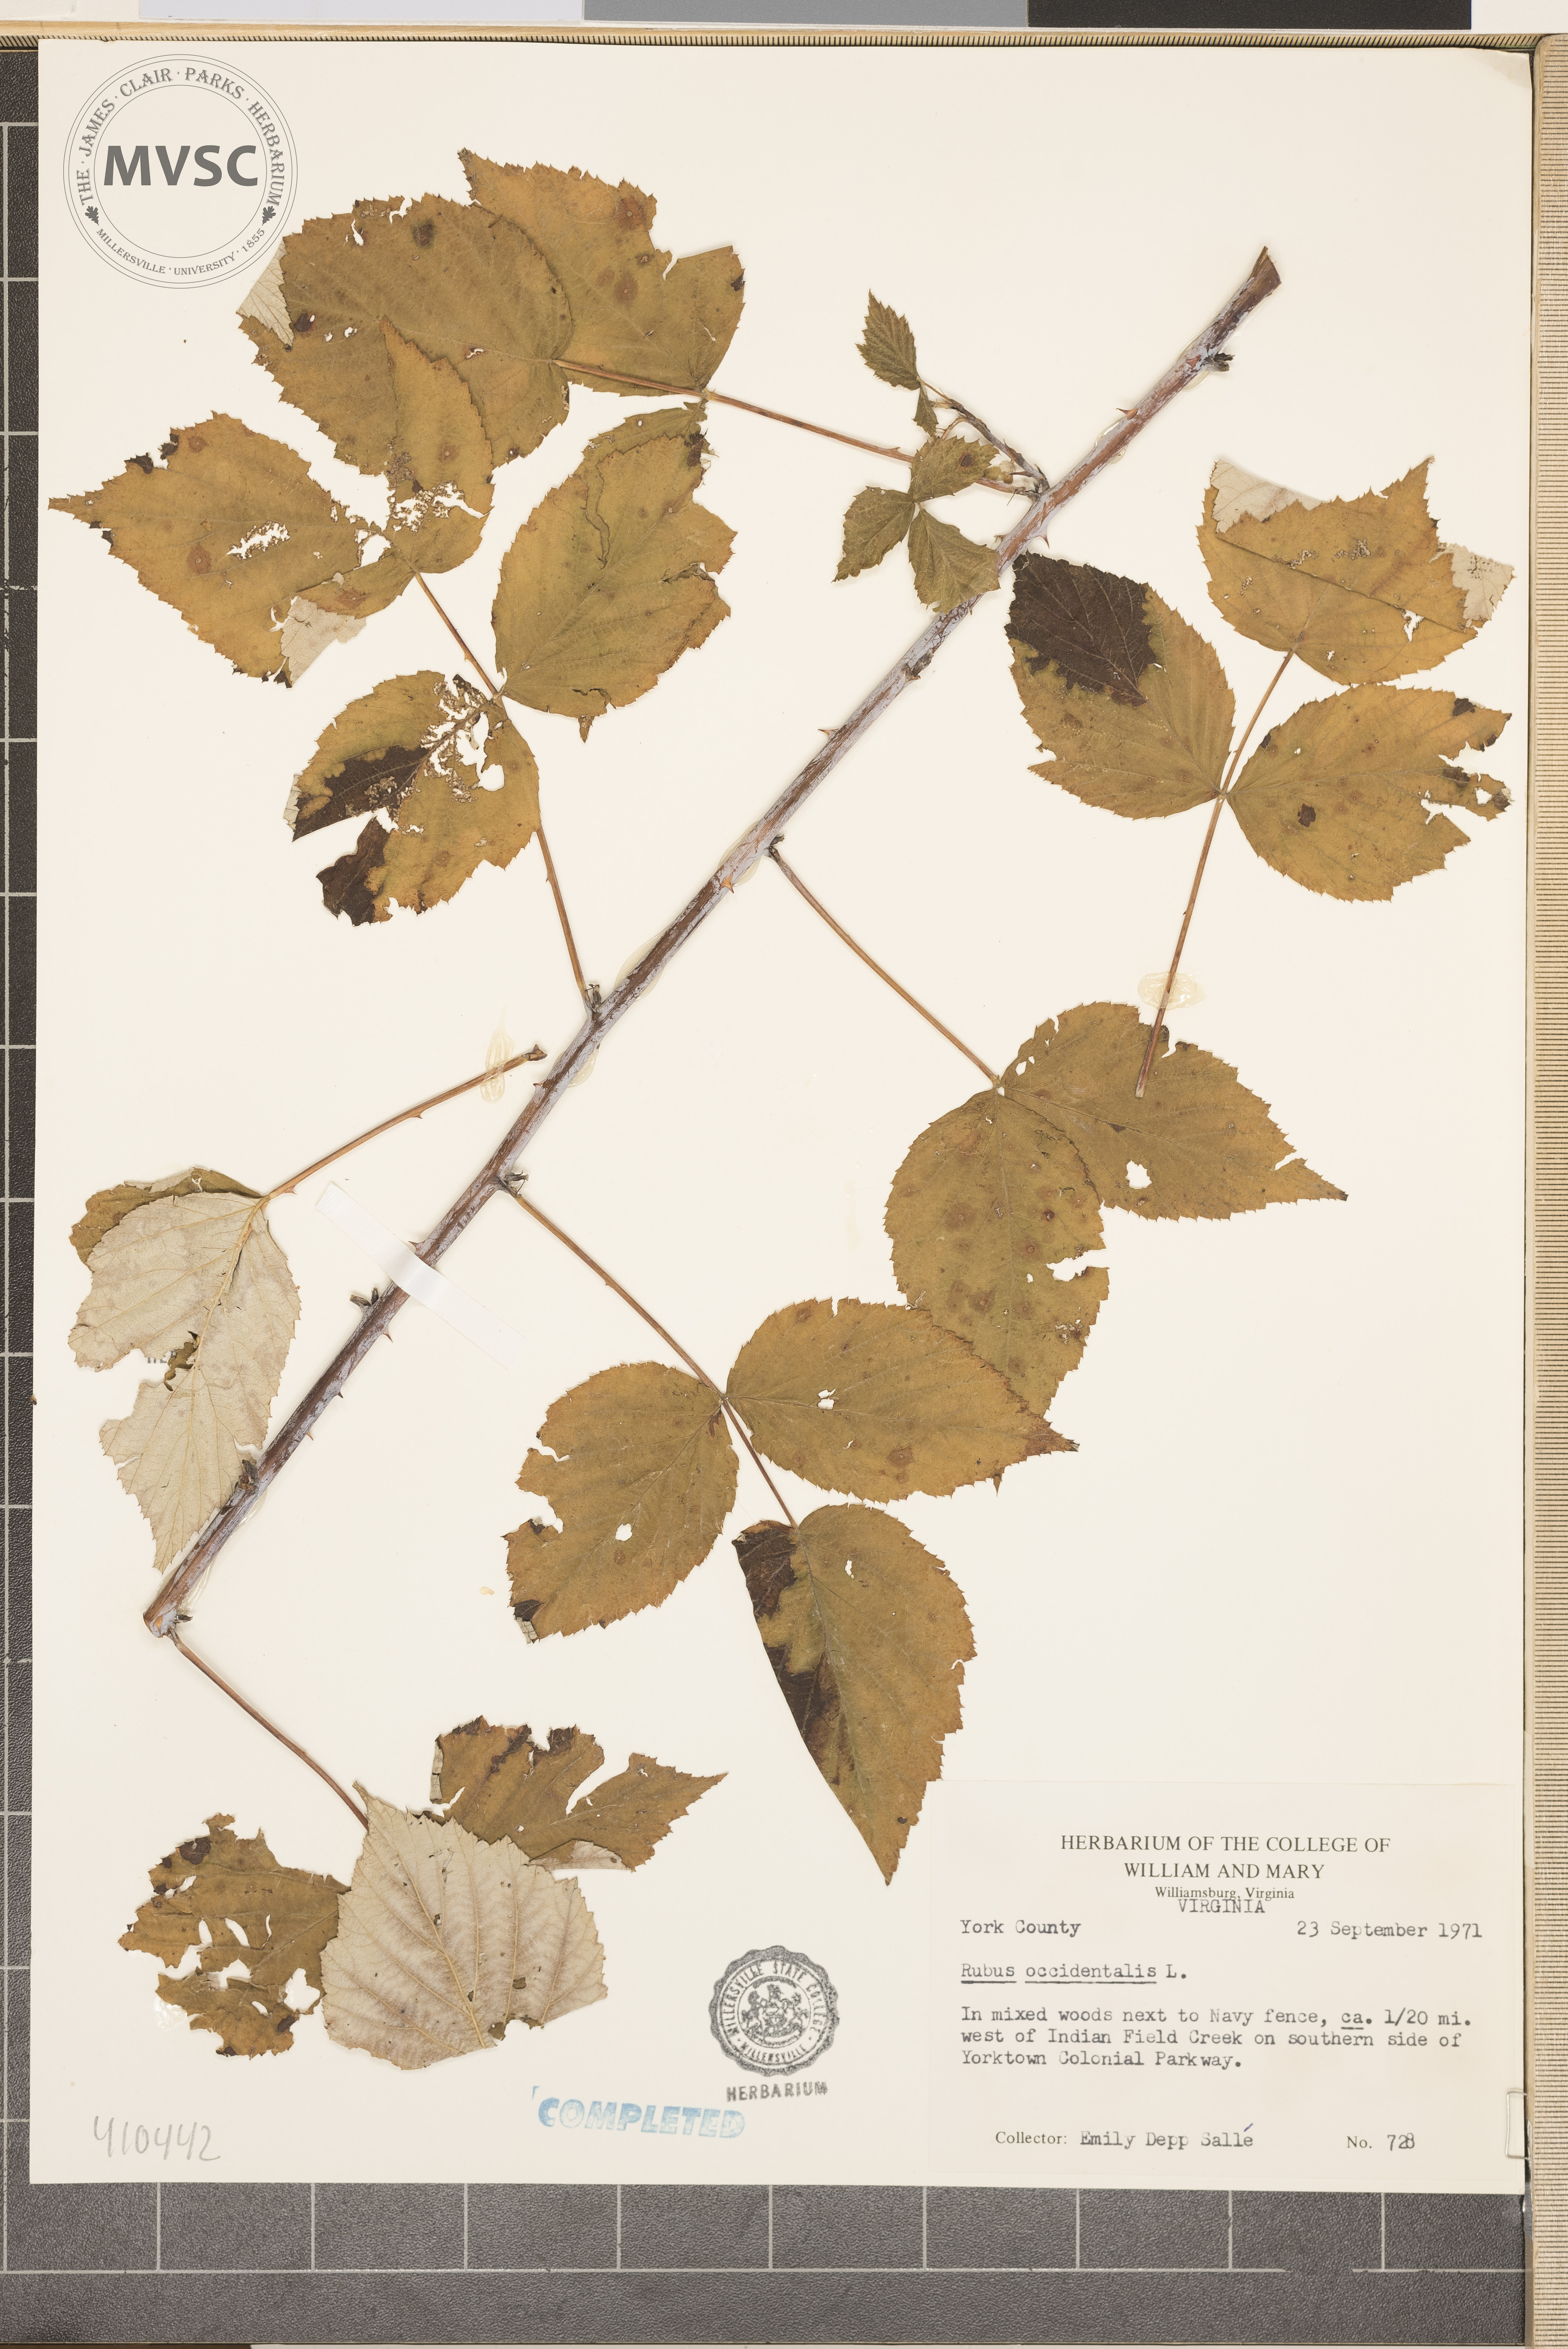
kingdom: Plantae
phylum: Tracheophyta
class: Magnoliopsida
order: Rosales
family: Rosaceae
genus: Rubus
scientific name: Rubus occidentalis
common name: Black raspberry
